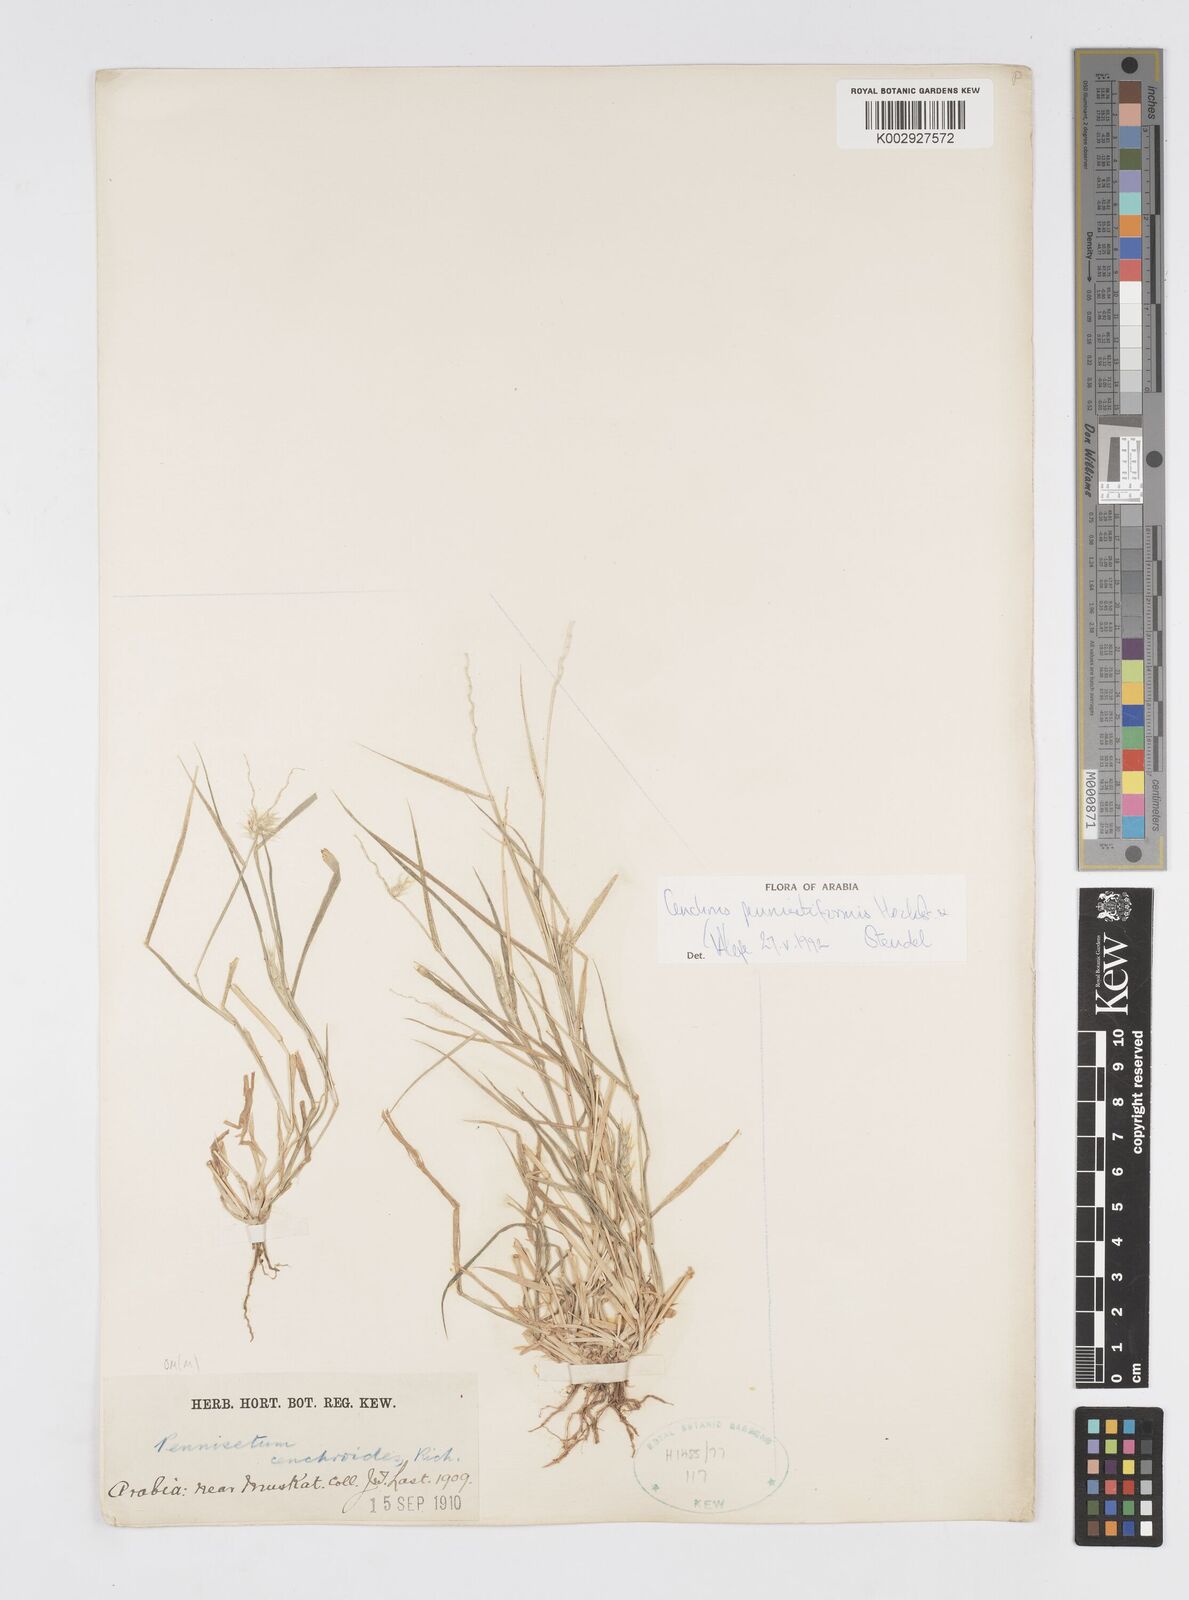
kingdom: Plantae
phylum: Tracheophyta
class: Liliopsida
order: Poales
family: Poaceae
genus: Cenchrus
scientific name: Cenchrus pennisetiformis
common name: Cloncurry
